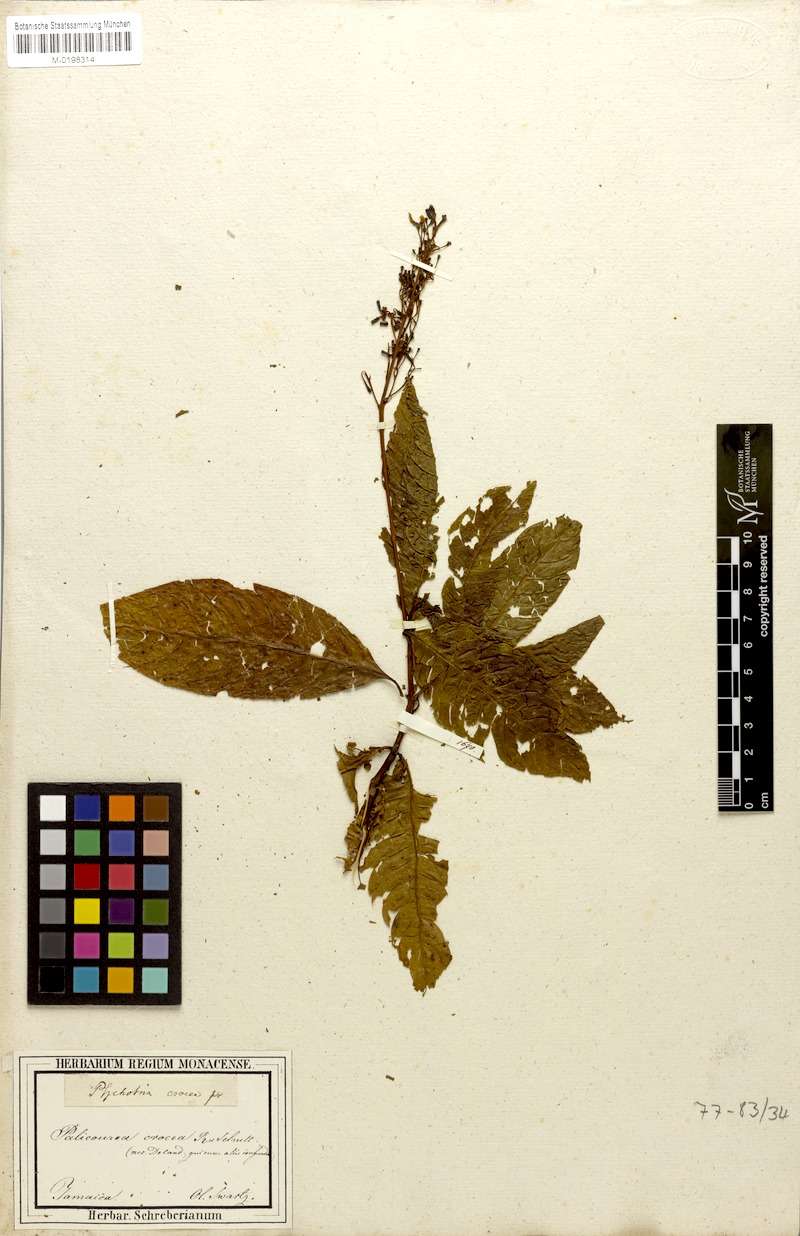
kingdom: Plantae
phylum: Tracheophyta
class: Magnoliopsida
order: Gentianales
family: Rubiaceae
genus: Palicourea
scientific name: Palicourea crocea
